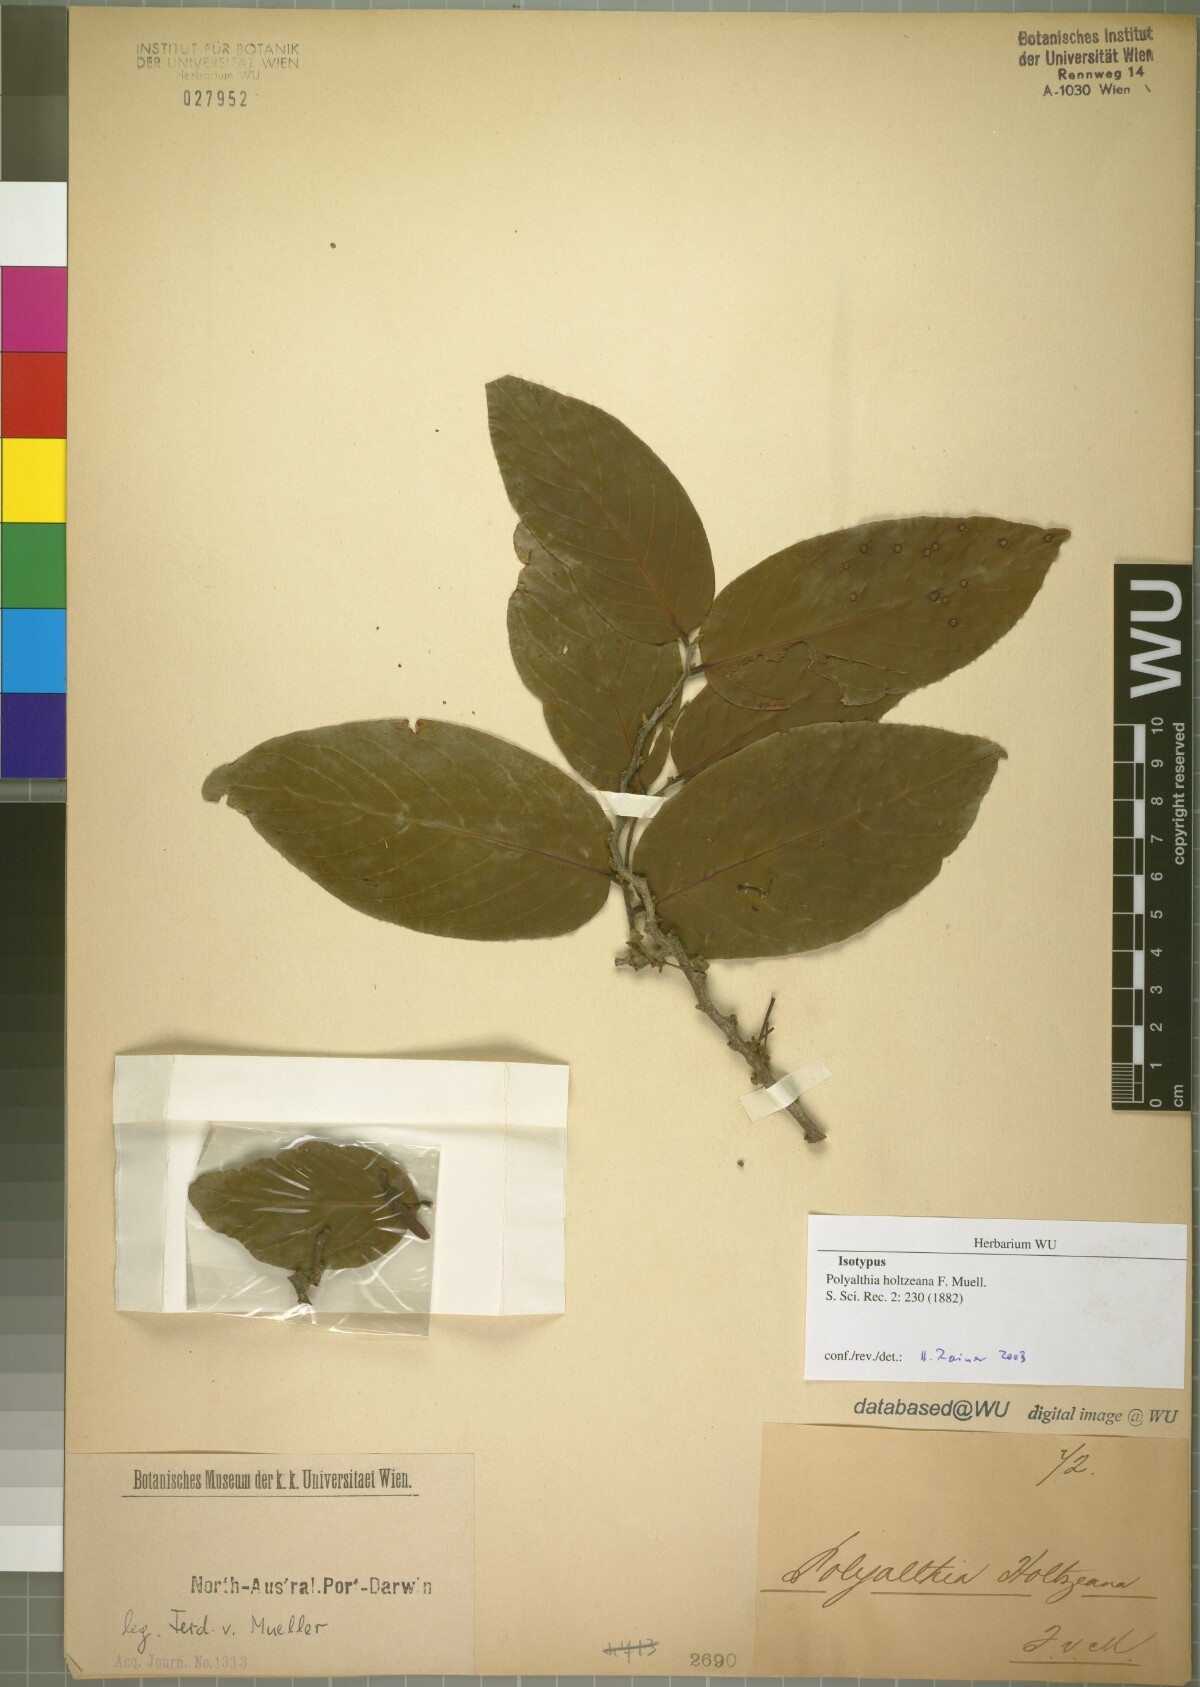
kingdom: Plantae
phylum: Tracheophyta
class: Magnoliopsida
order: Magnoliales
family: Annonaceae
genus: Polyalthia
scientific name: Polyalthia australis
